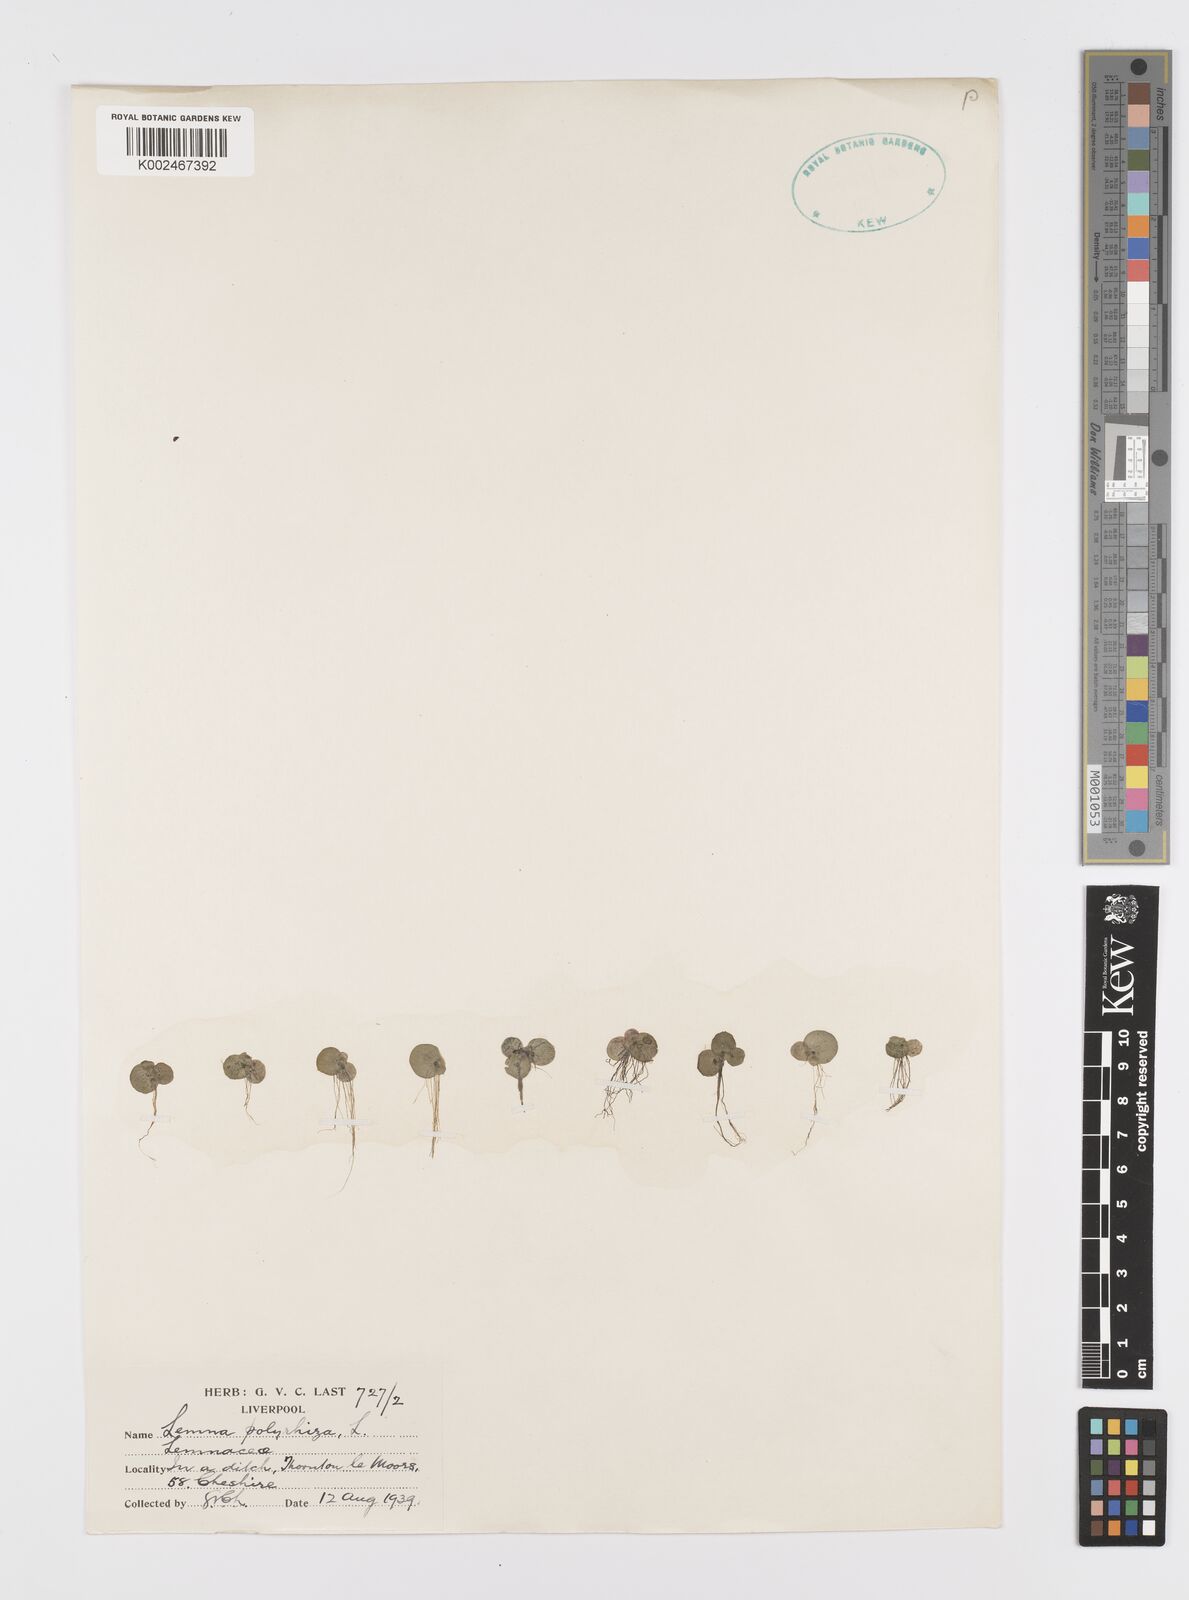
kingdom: Plantae
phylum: Tracheophyta
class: Liliopsida
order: Alismatales
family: Araceae
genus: Spirodela
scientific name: Spirodela polyrhiza
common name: Great duckweed
